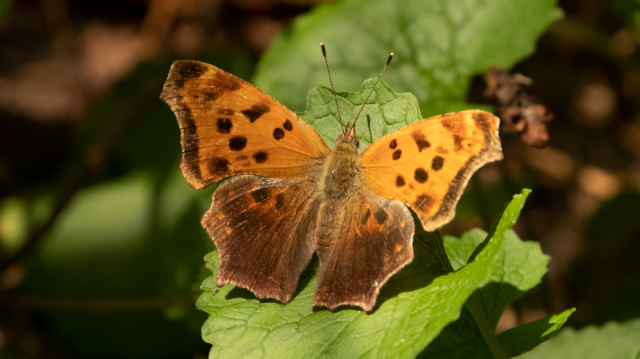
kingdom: Animalia
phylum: Arthropoda
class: Insecta
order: Lepidoptera
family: Nymphalidae
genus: Polygonia
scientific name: Polygonia comma
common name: Eastern Comma
